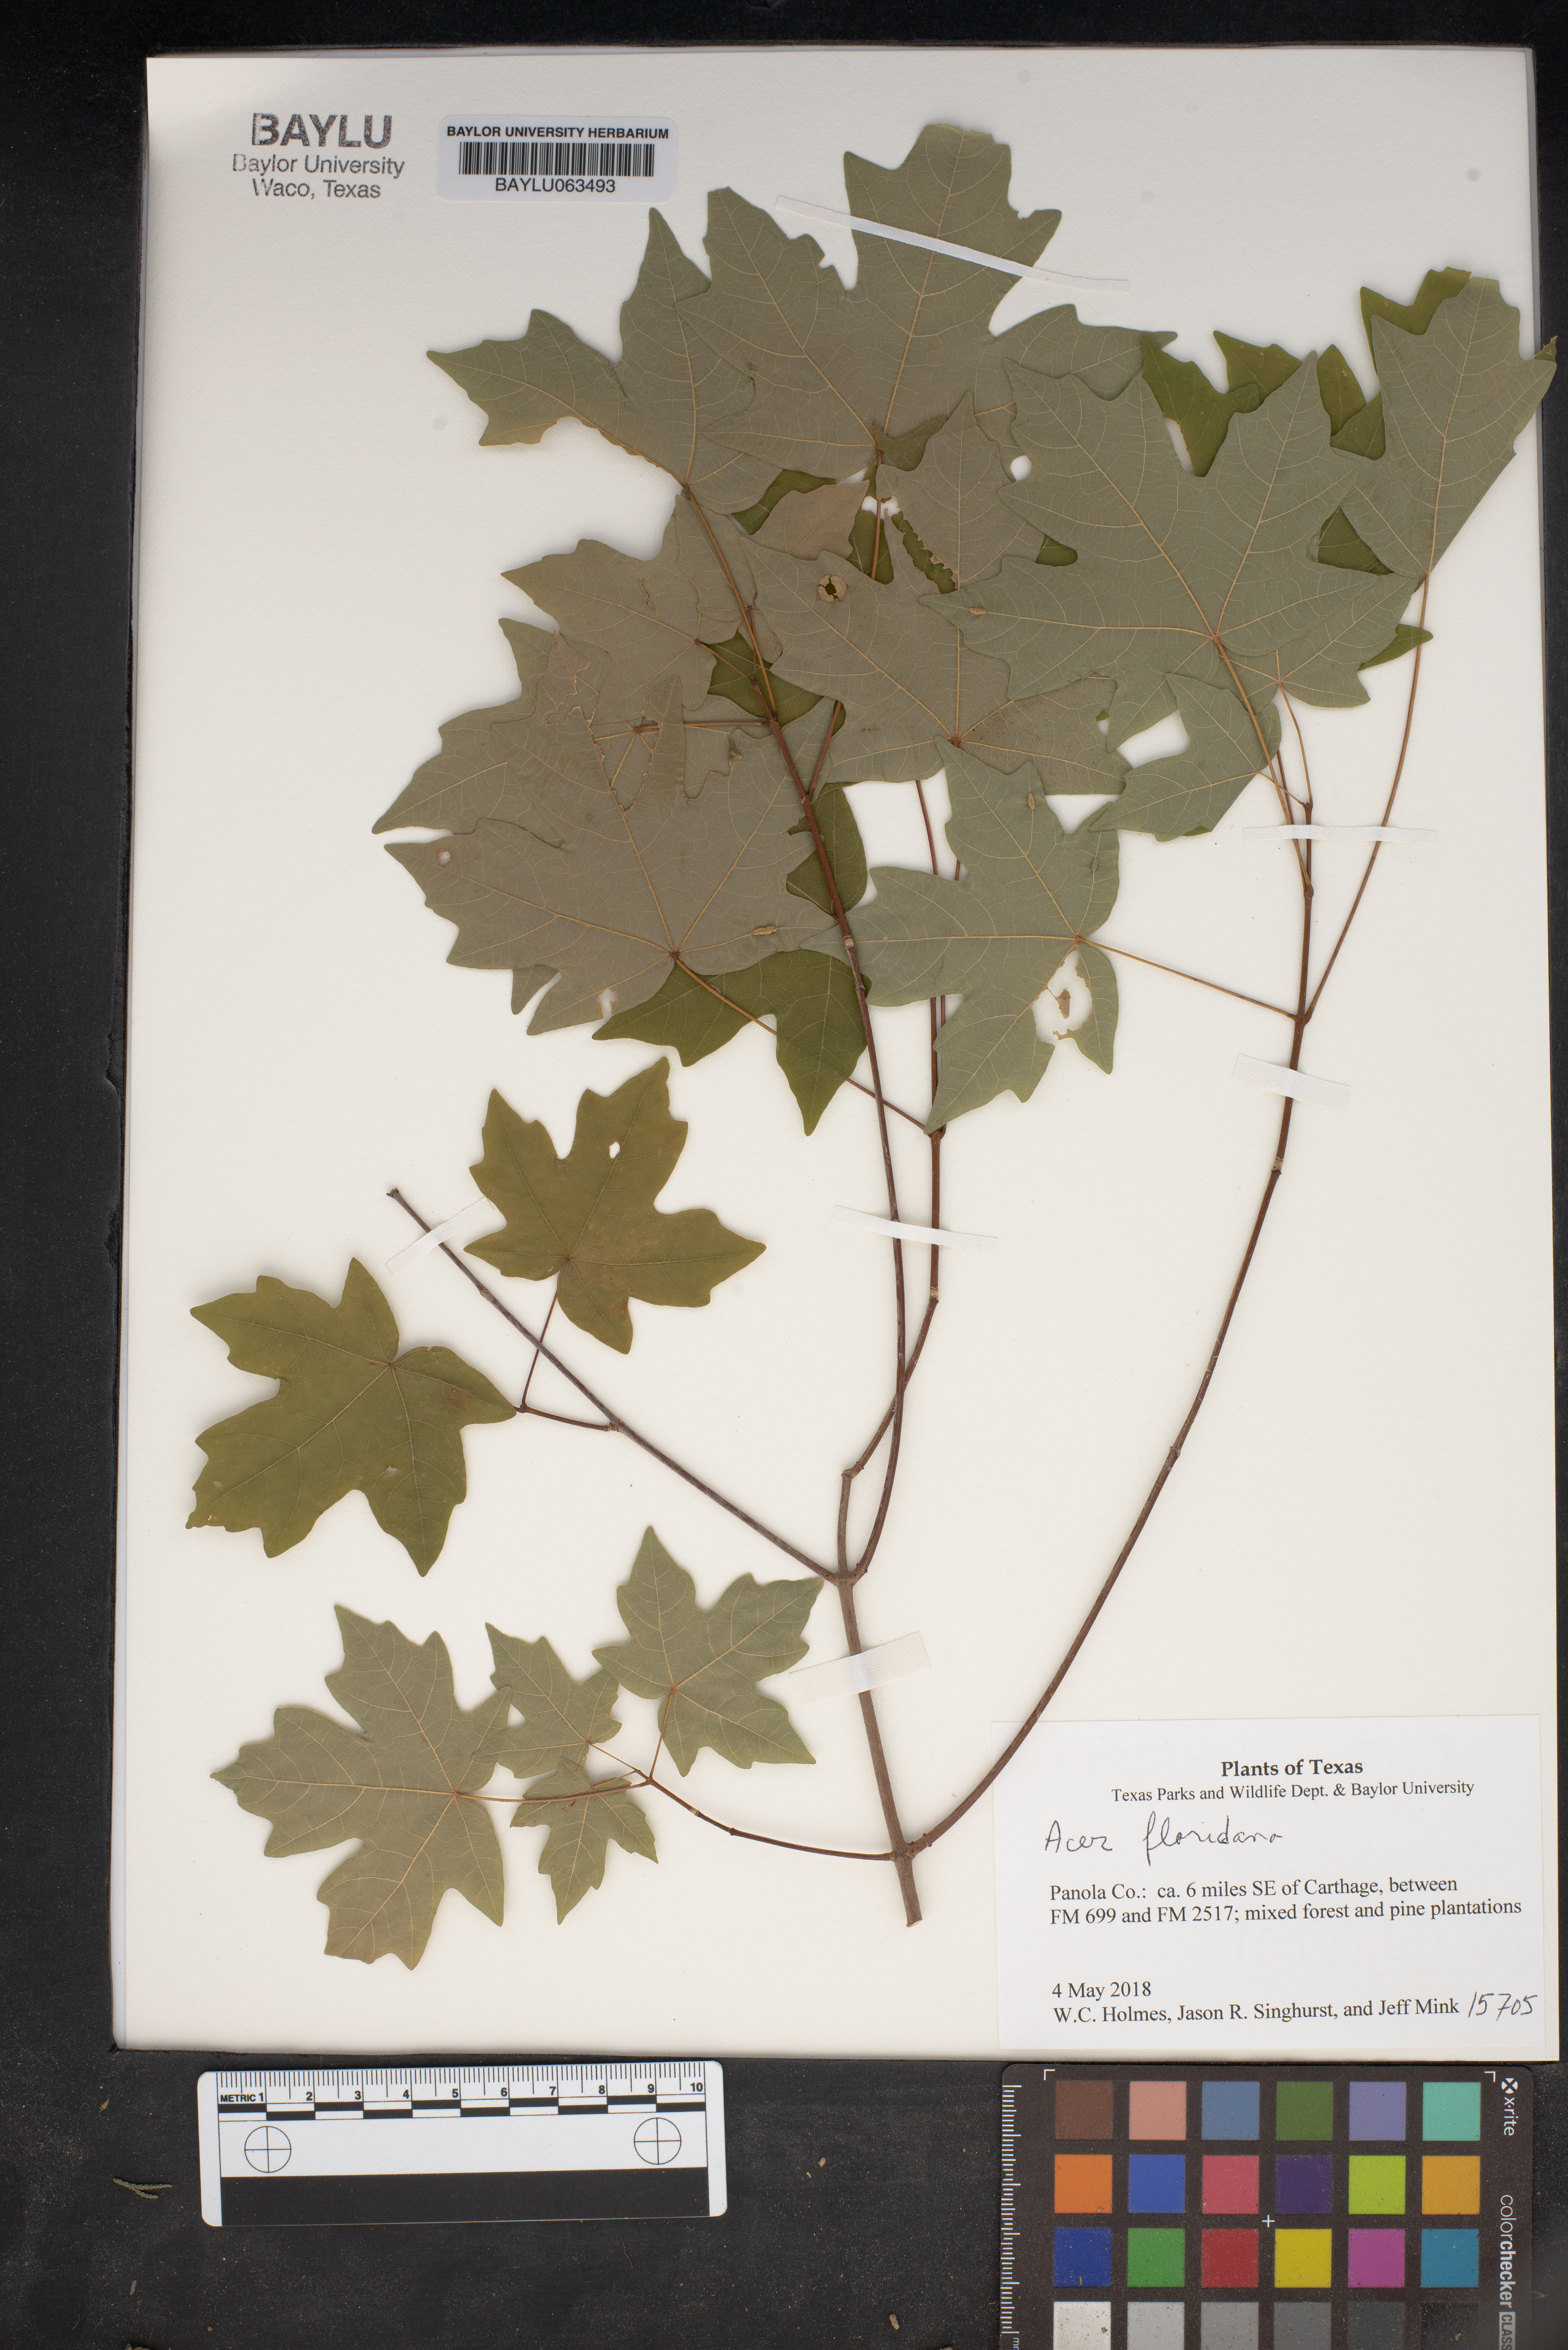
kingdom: Plantae
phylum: Tracheophyta
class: Magnoliopsida
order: Gentianales
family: Apocynaceae
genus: Asclepias
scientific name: Asclepias tuberosa
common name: Butterfly milkweed
